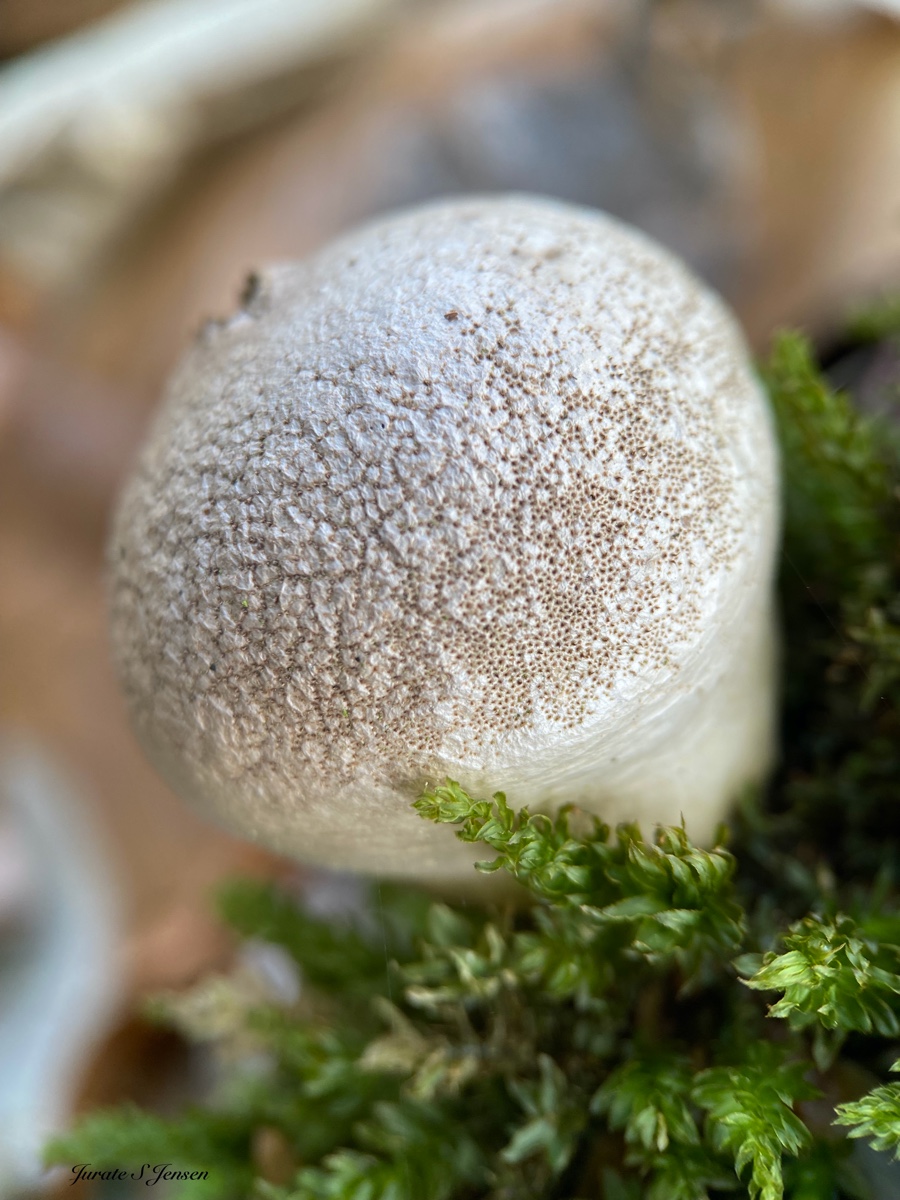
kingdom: Fungi
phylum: Basidiomycota
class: Agaricomycetes
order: Agaricales
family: Agaricaceae
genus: Lycoperdon
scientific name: Lycoperdon
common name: støvbold
